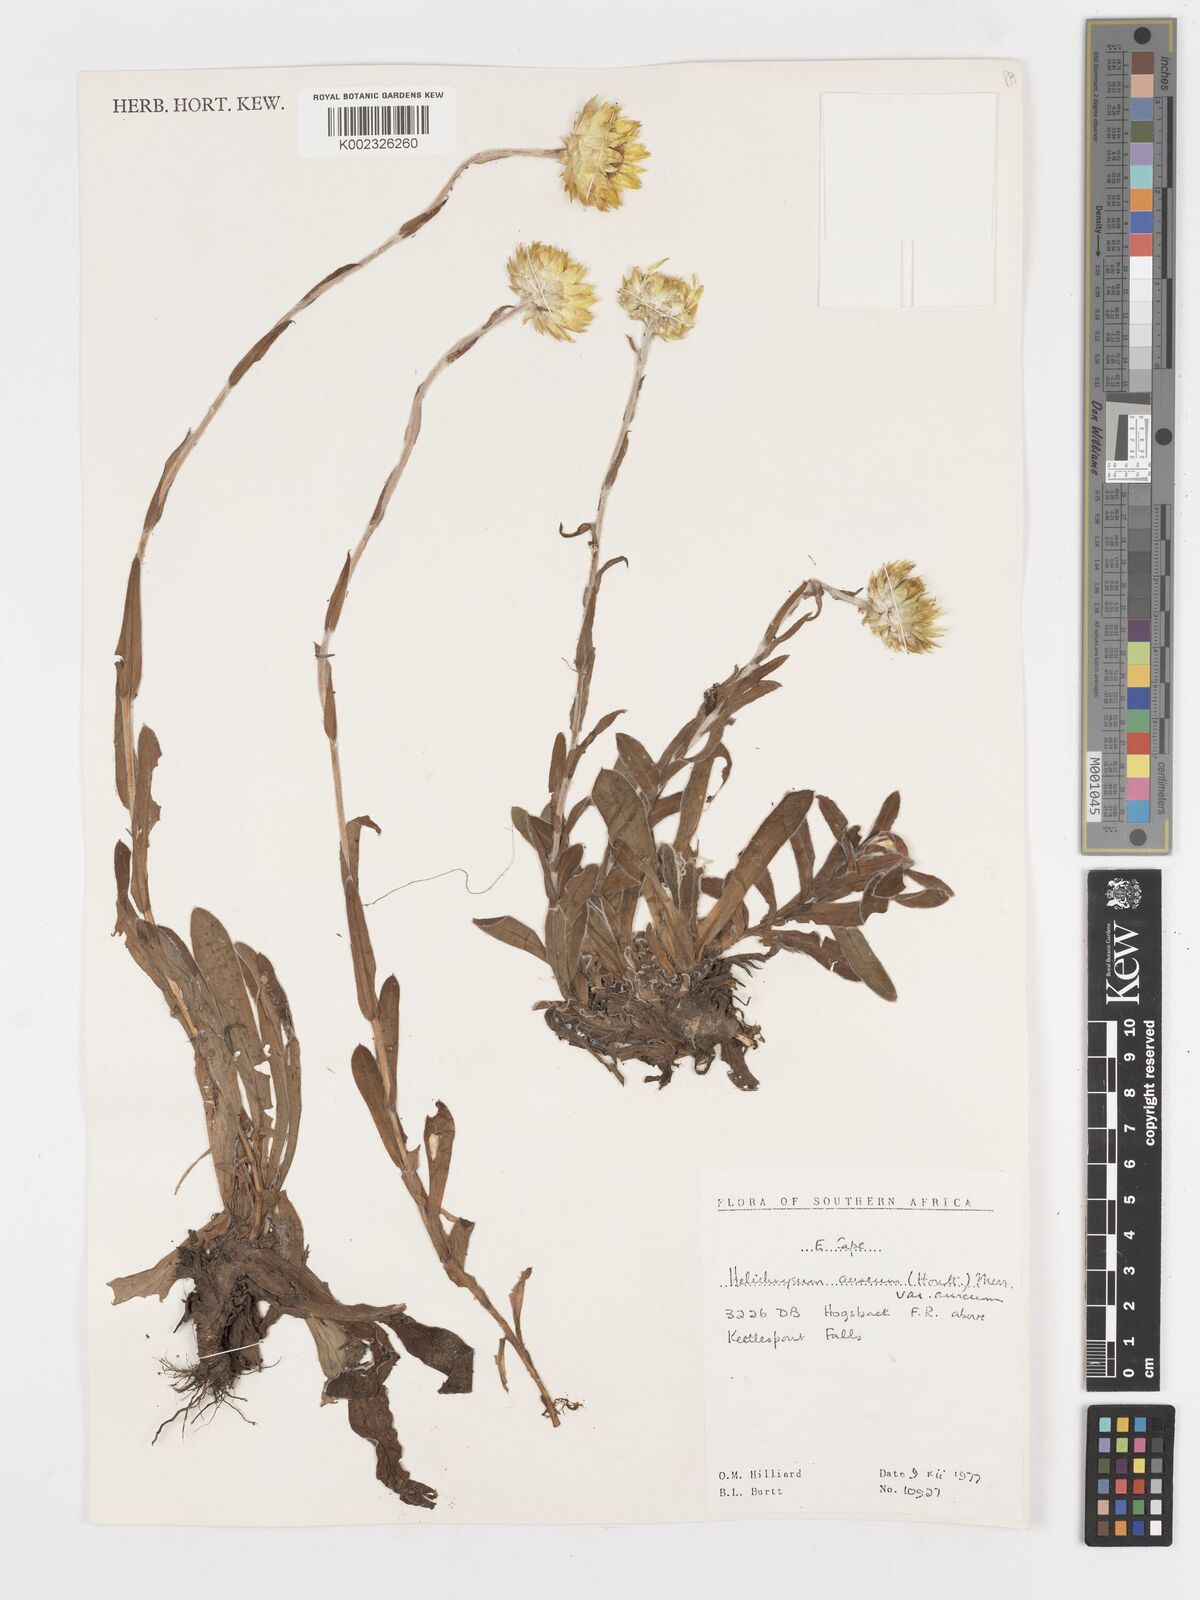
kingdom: Plantae
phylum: Tracheophyta
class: Magnoliopsida
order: Asterales
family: Asteraceae
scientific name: Asteraceae
